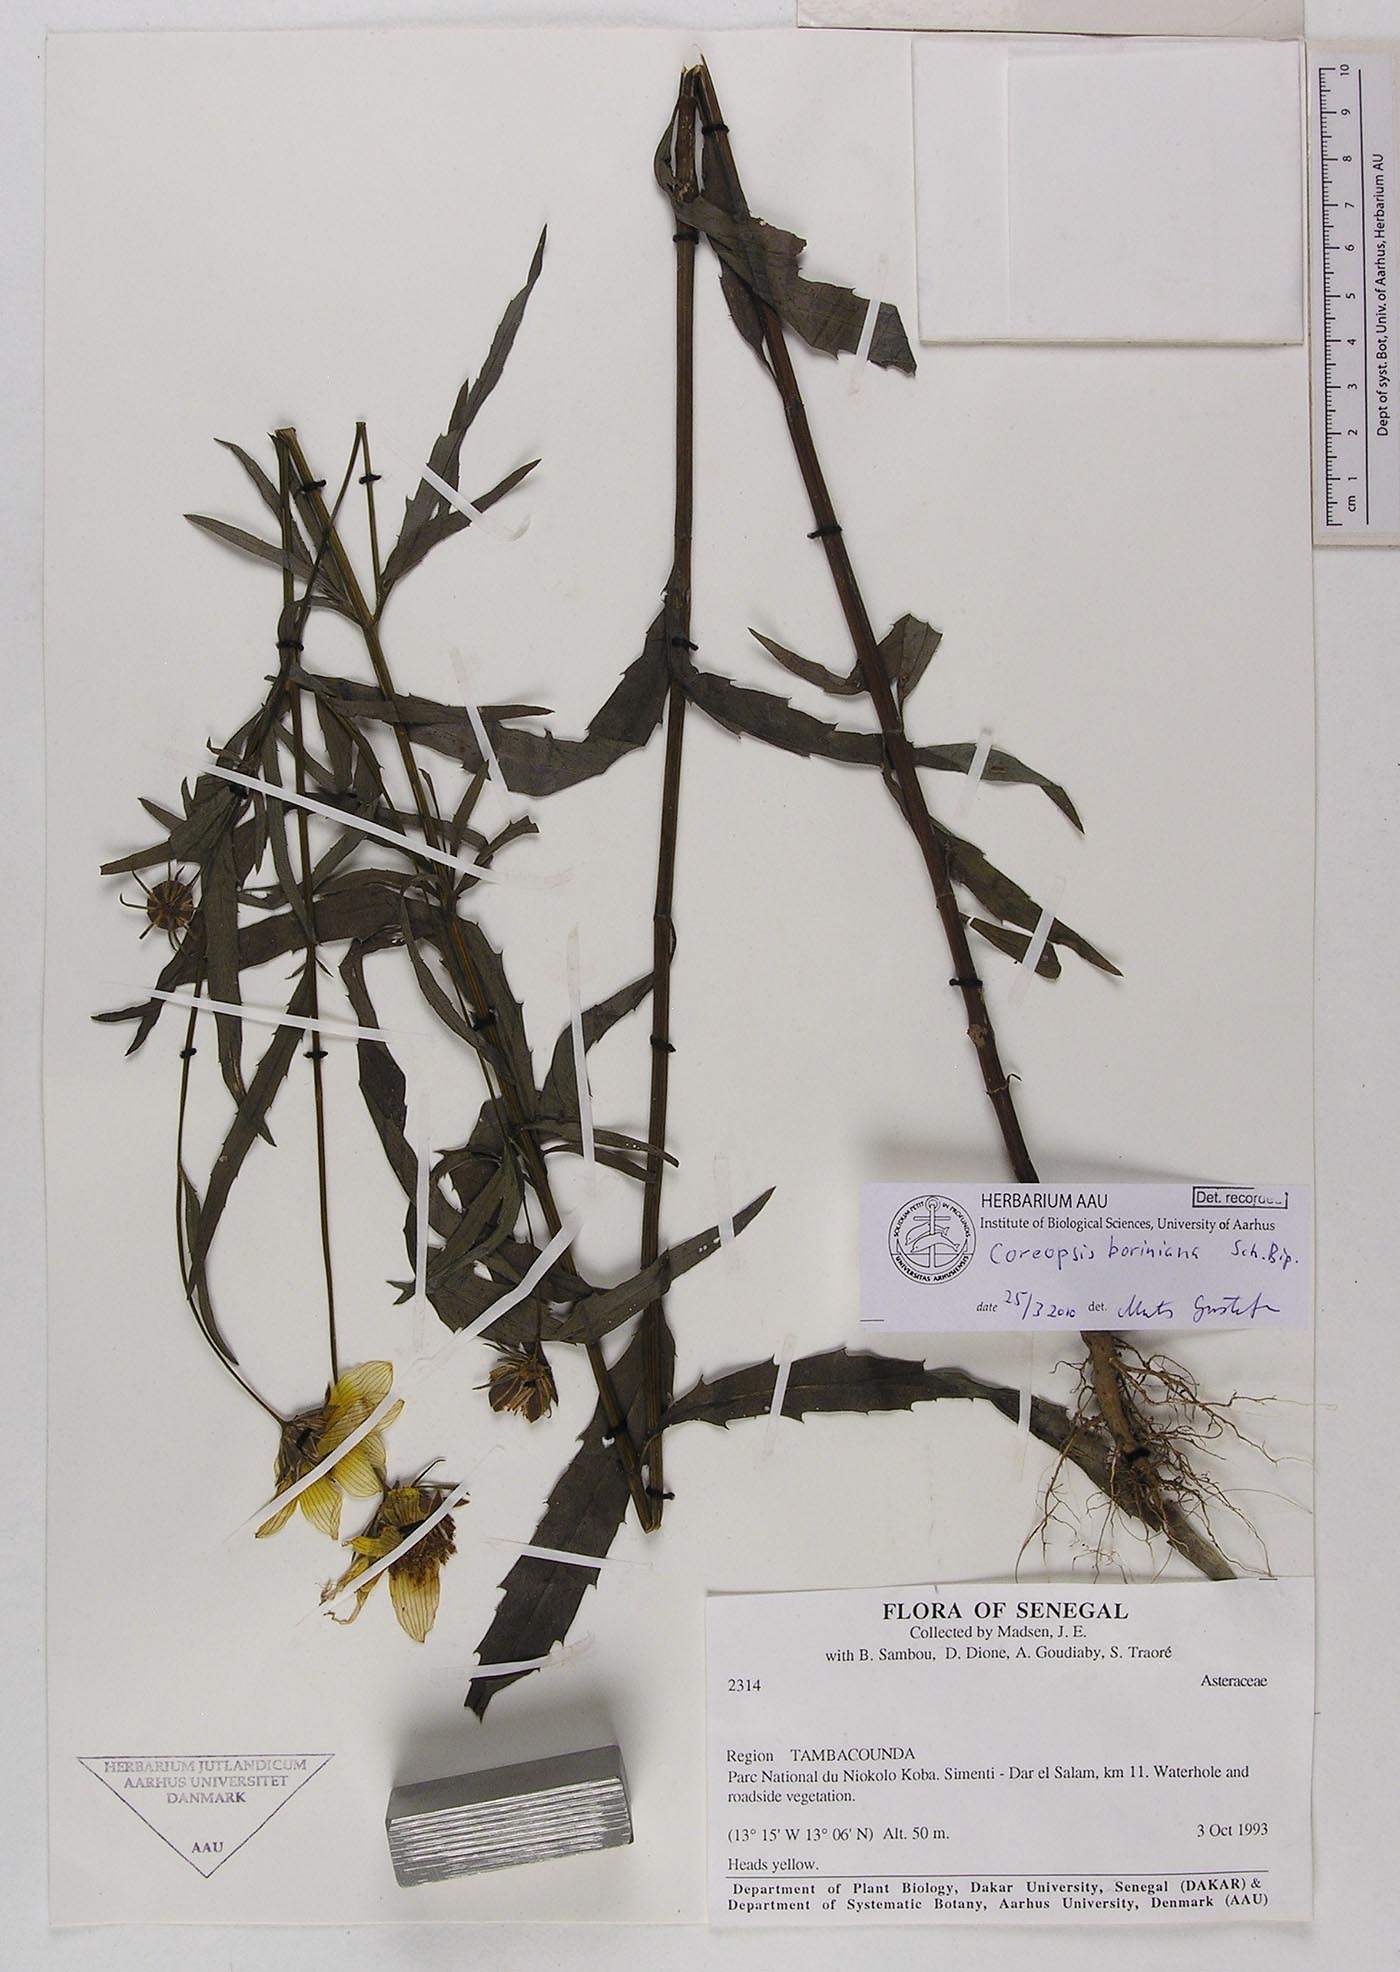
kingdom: Plantae
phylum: Tracheophyta
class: Magnoliopsida
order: Asterales
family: Asteraceae
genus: Coreopsis
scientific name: Coreopsis borianiana
